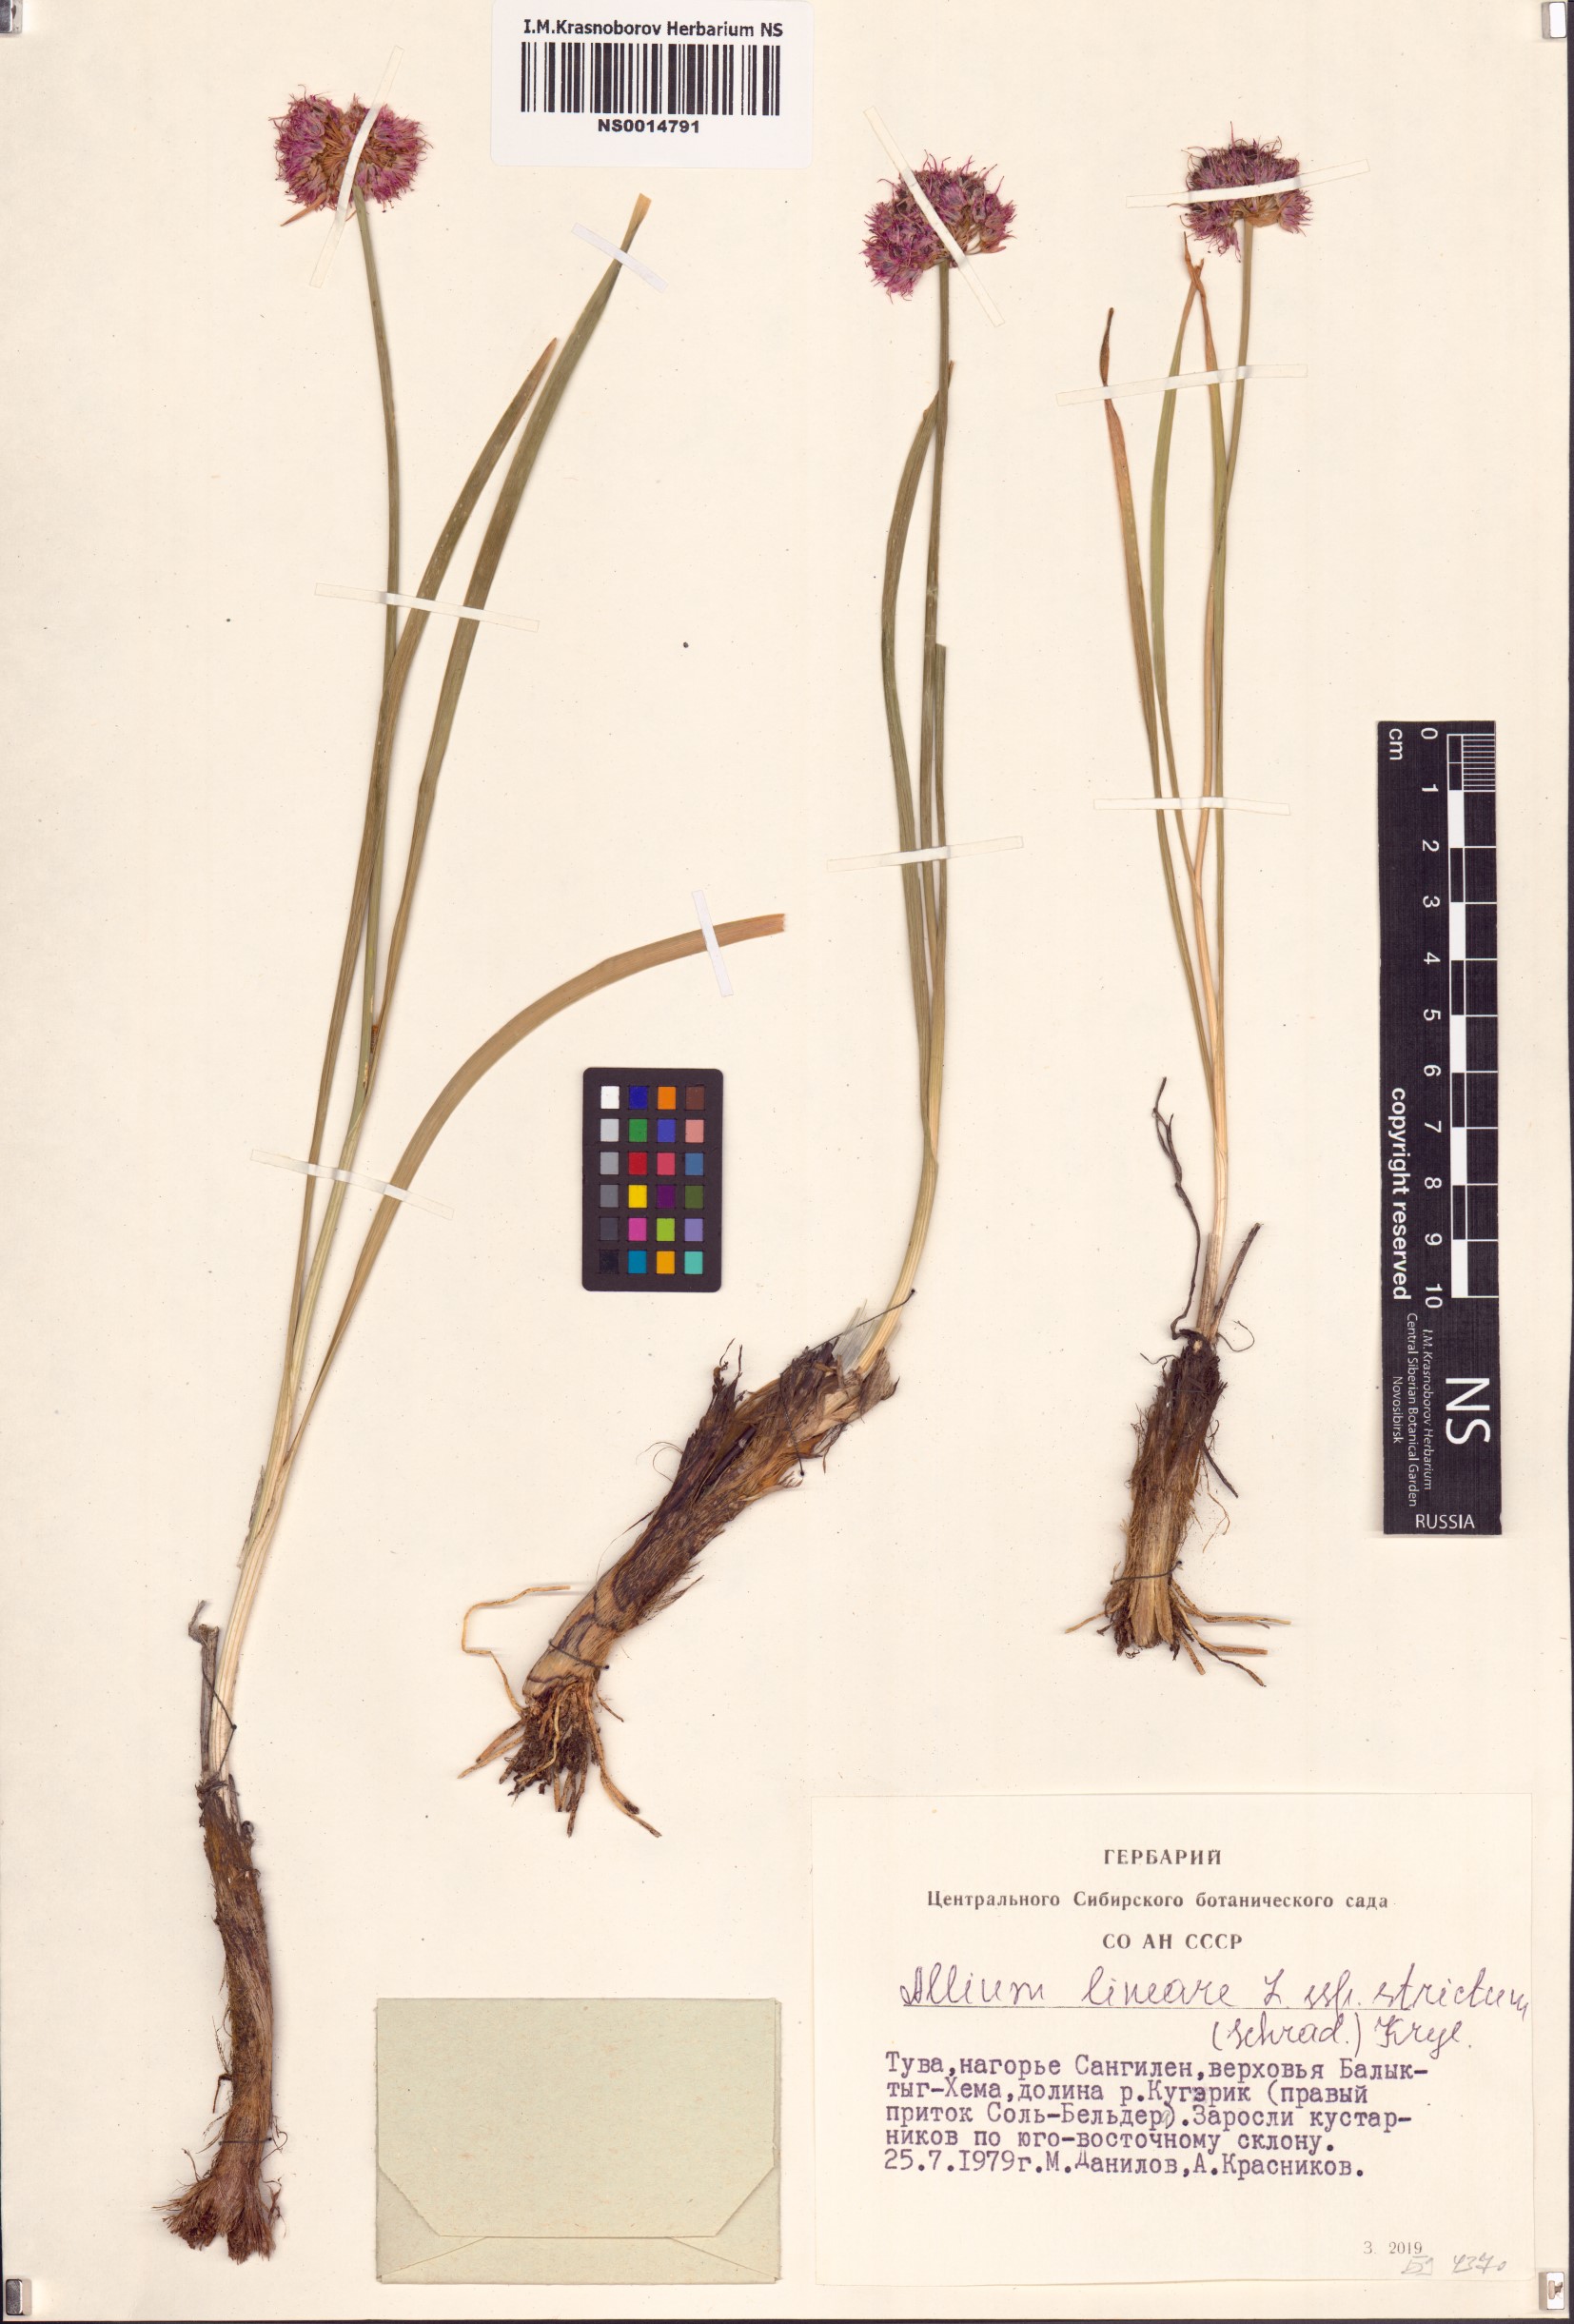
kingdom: Plantae
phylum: Tracheophyta
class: Liliopsida
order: Asparagales
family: Amaryllidaceae
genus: Allium
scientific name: Allium strictum
